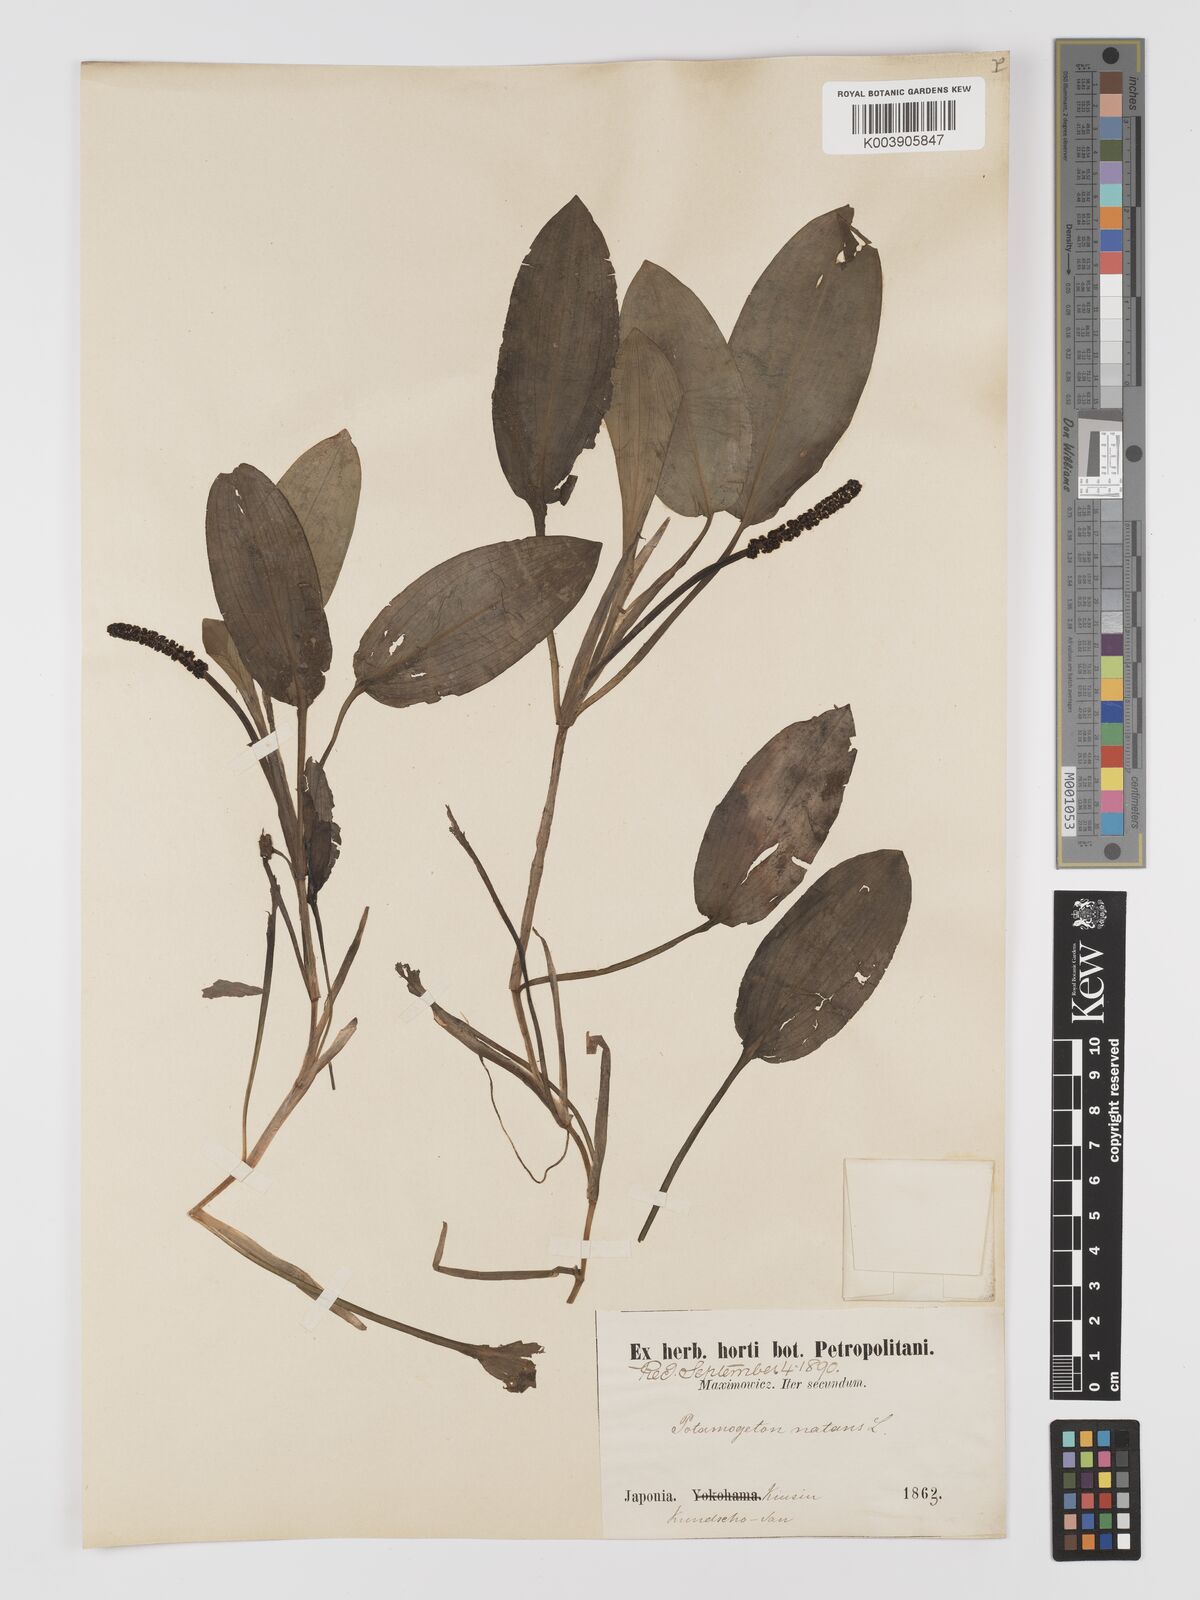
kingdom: Plantae
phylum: Tracheophyta
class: Liliopsida
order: Alismatales
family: Potamogetonaceae
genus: Potamogeton
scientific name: Potamogeton natans
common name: Broad-leaved pondweed
